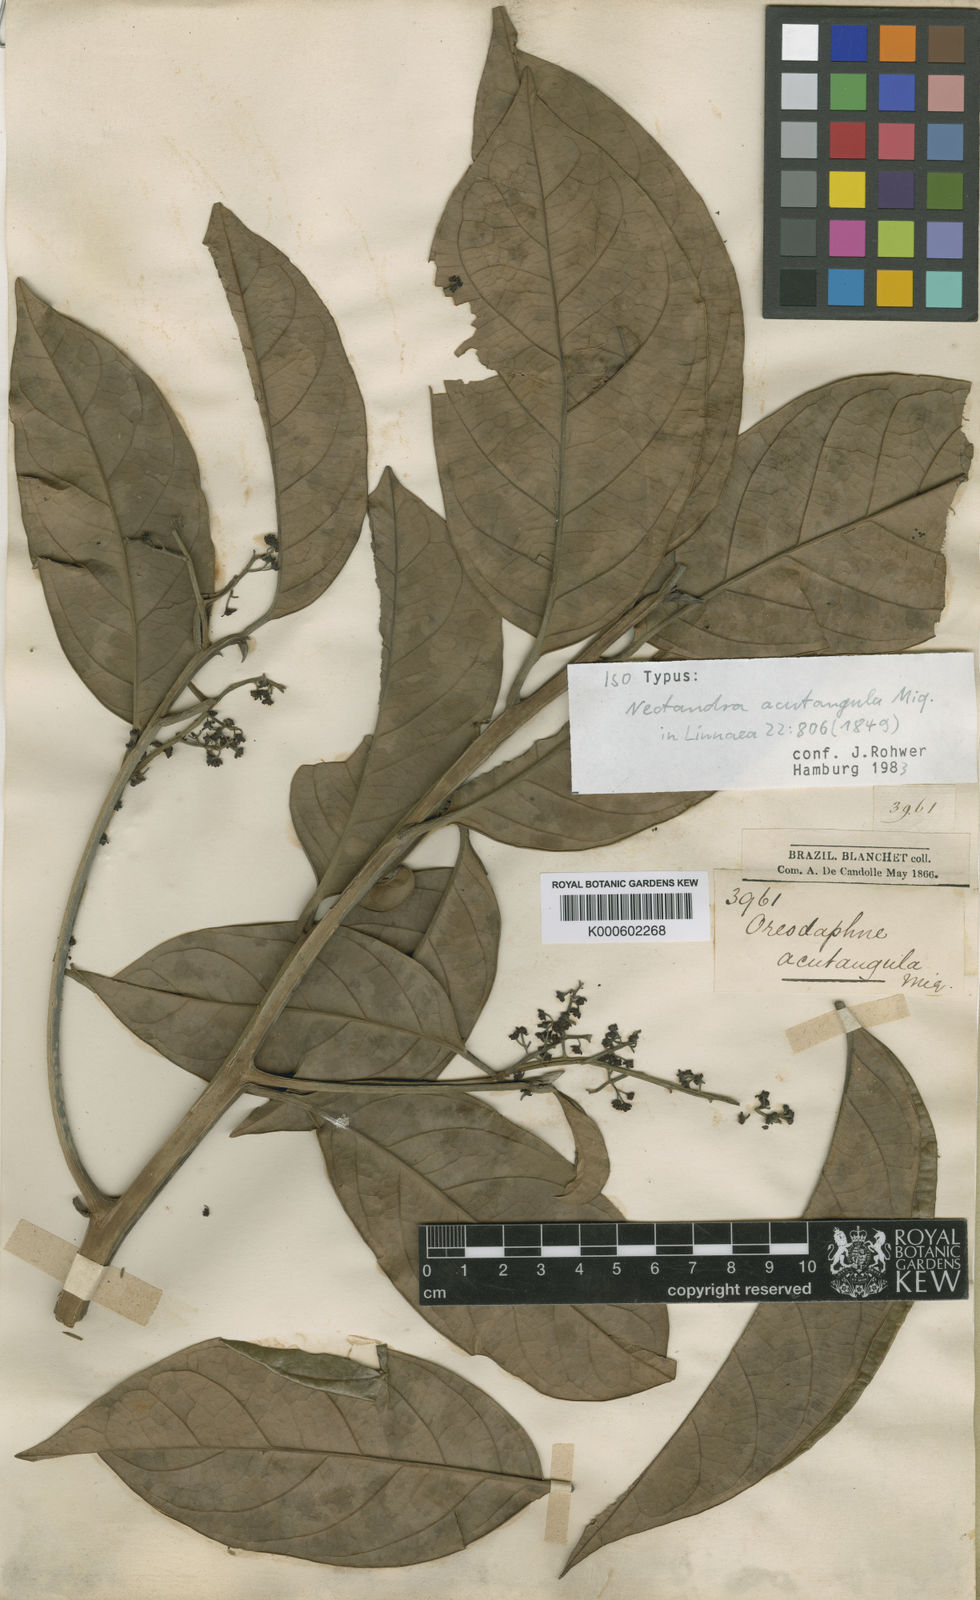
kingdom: Plantae
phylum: Tracheophyta
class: Magnoliopsida
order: Laurales
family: Lauraceae
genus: Ocotea
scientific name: Ocotea acutangula
